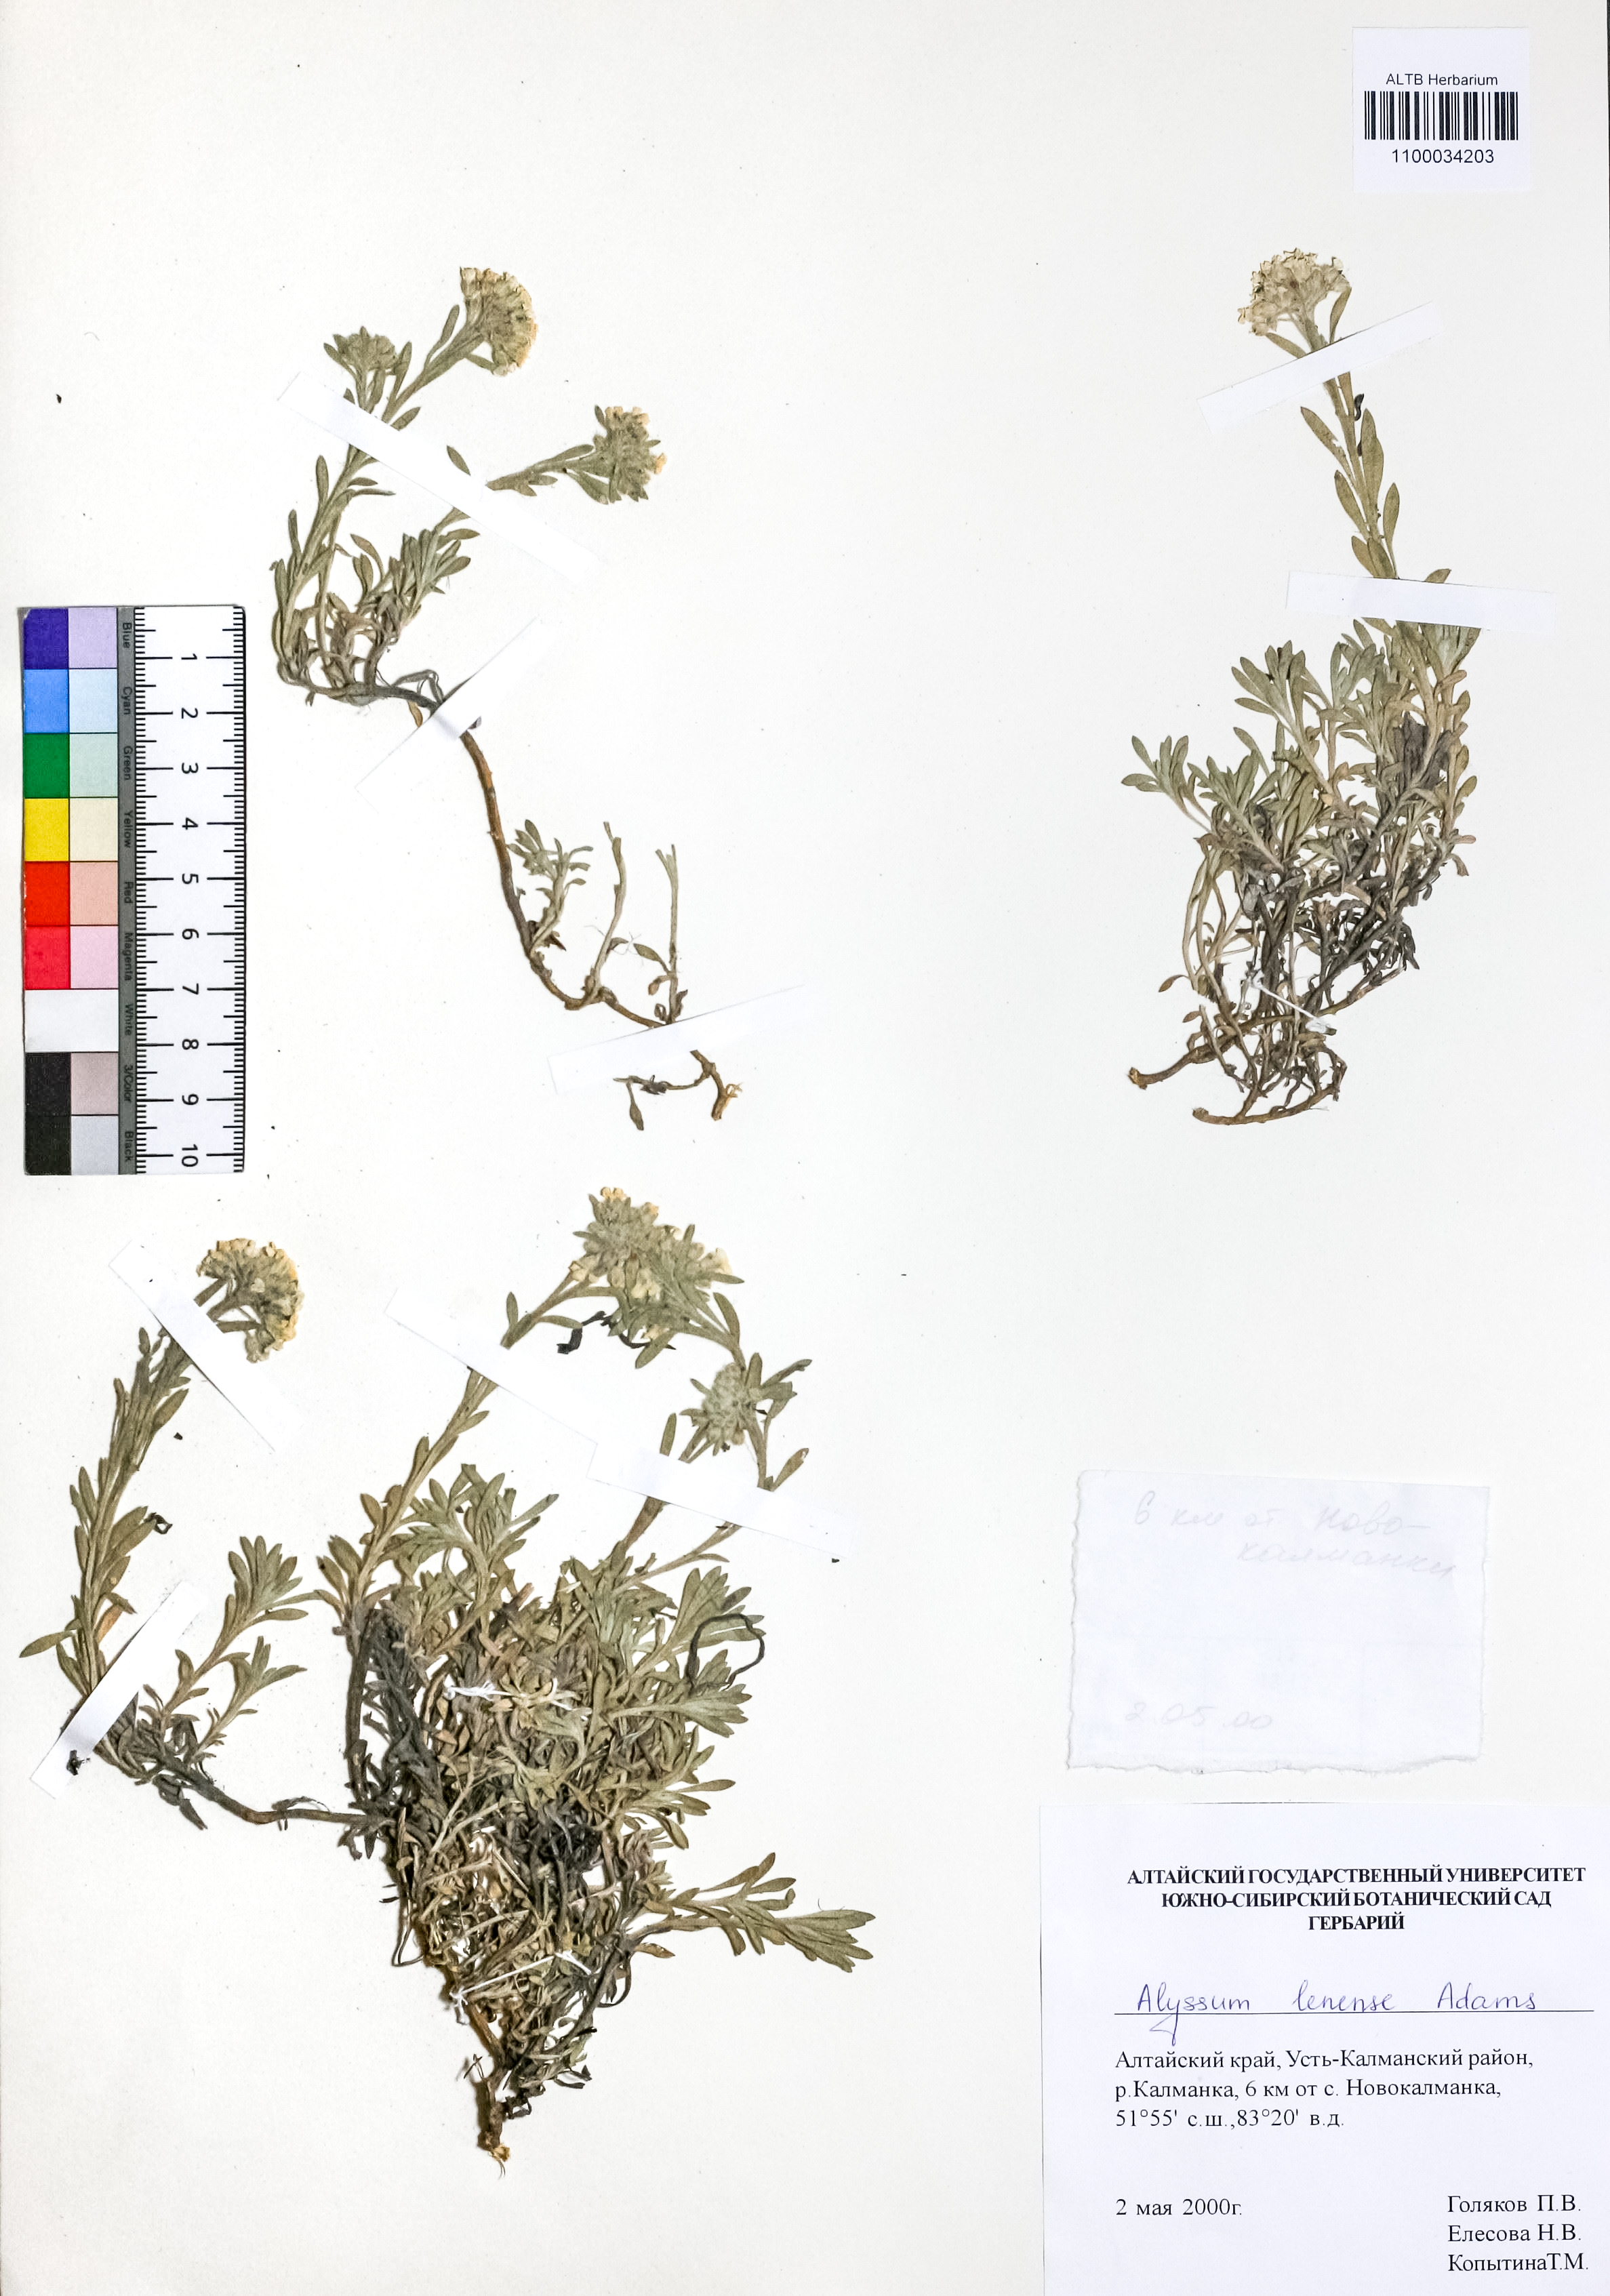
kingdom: Plantae
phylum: Tracheophyta
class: Magnoliopsida
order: Brassicales
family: Brassicaceae
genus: Alyssum
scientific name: Alyssum lenense
